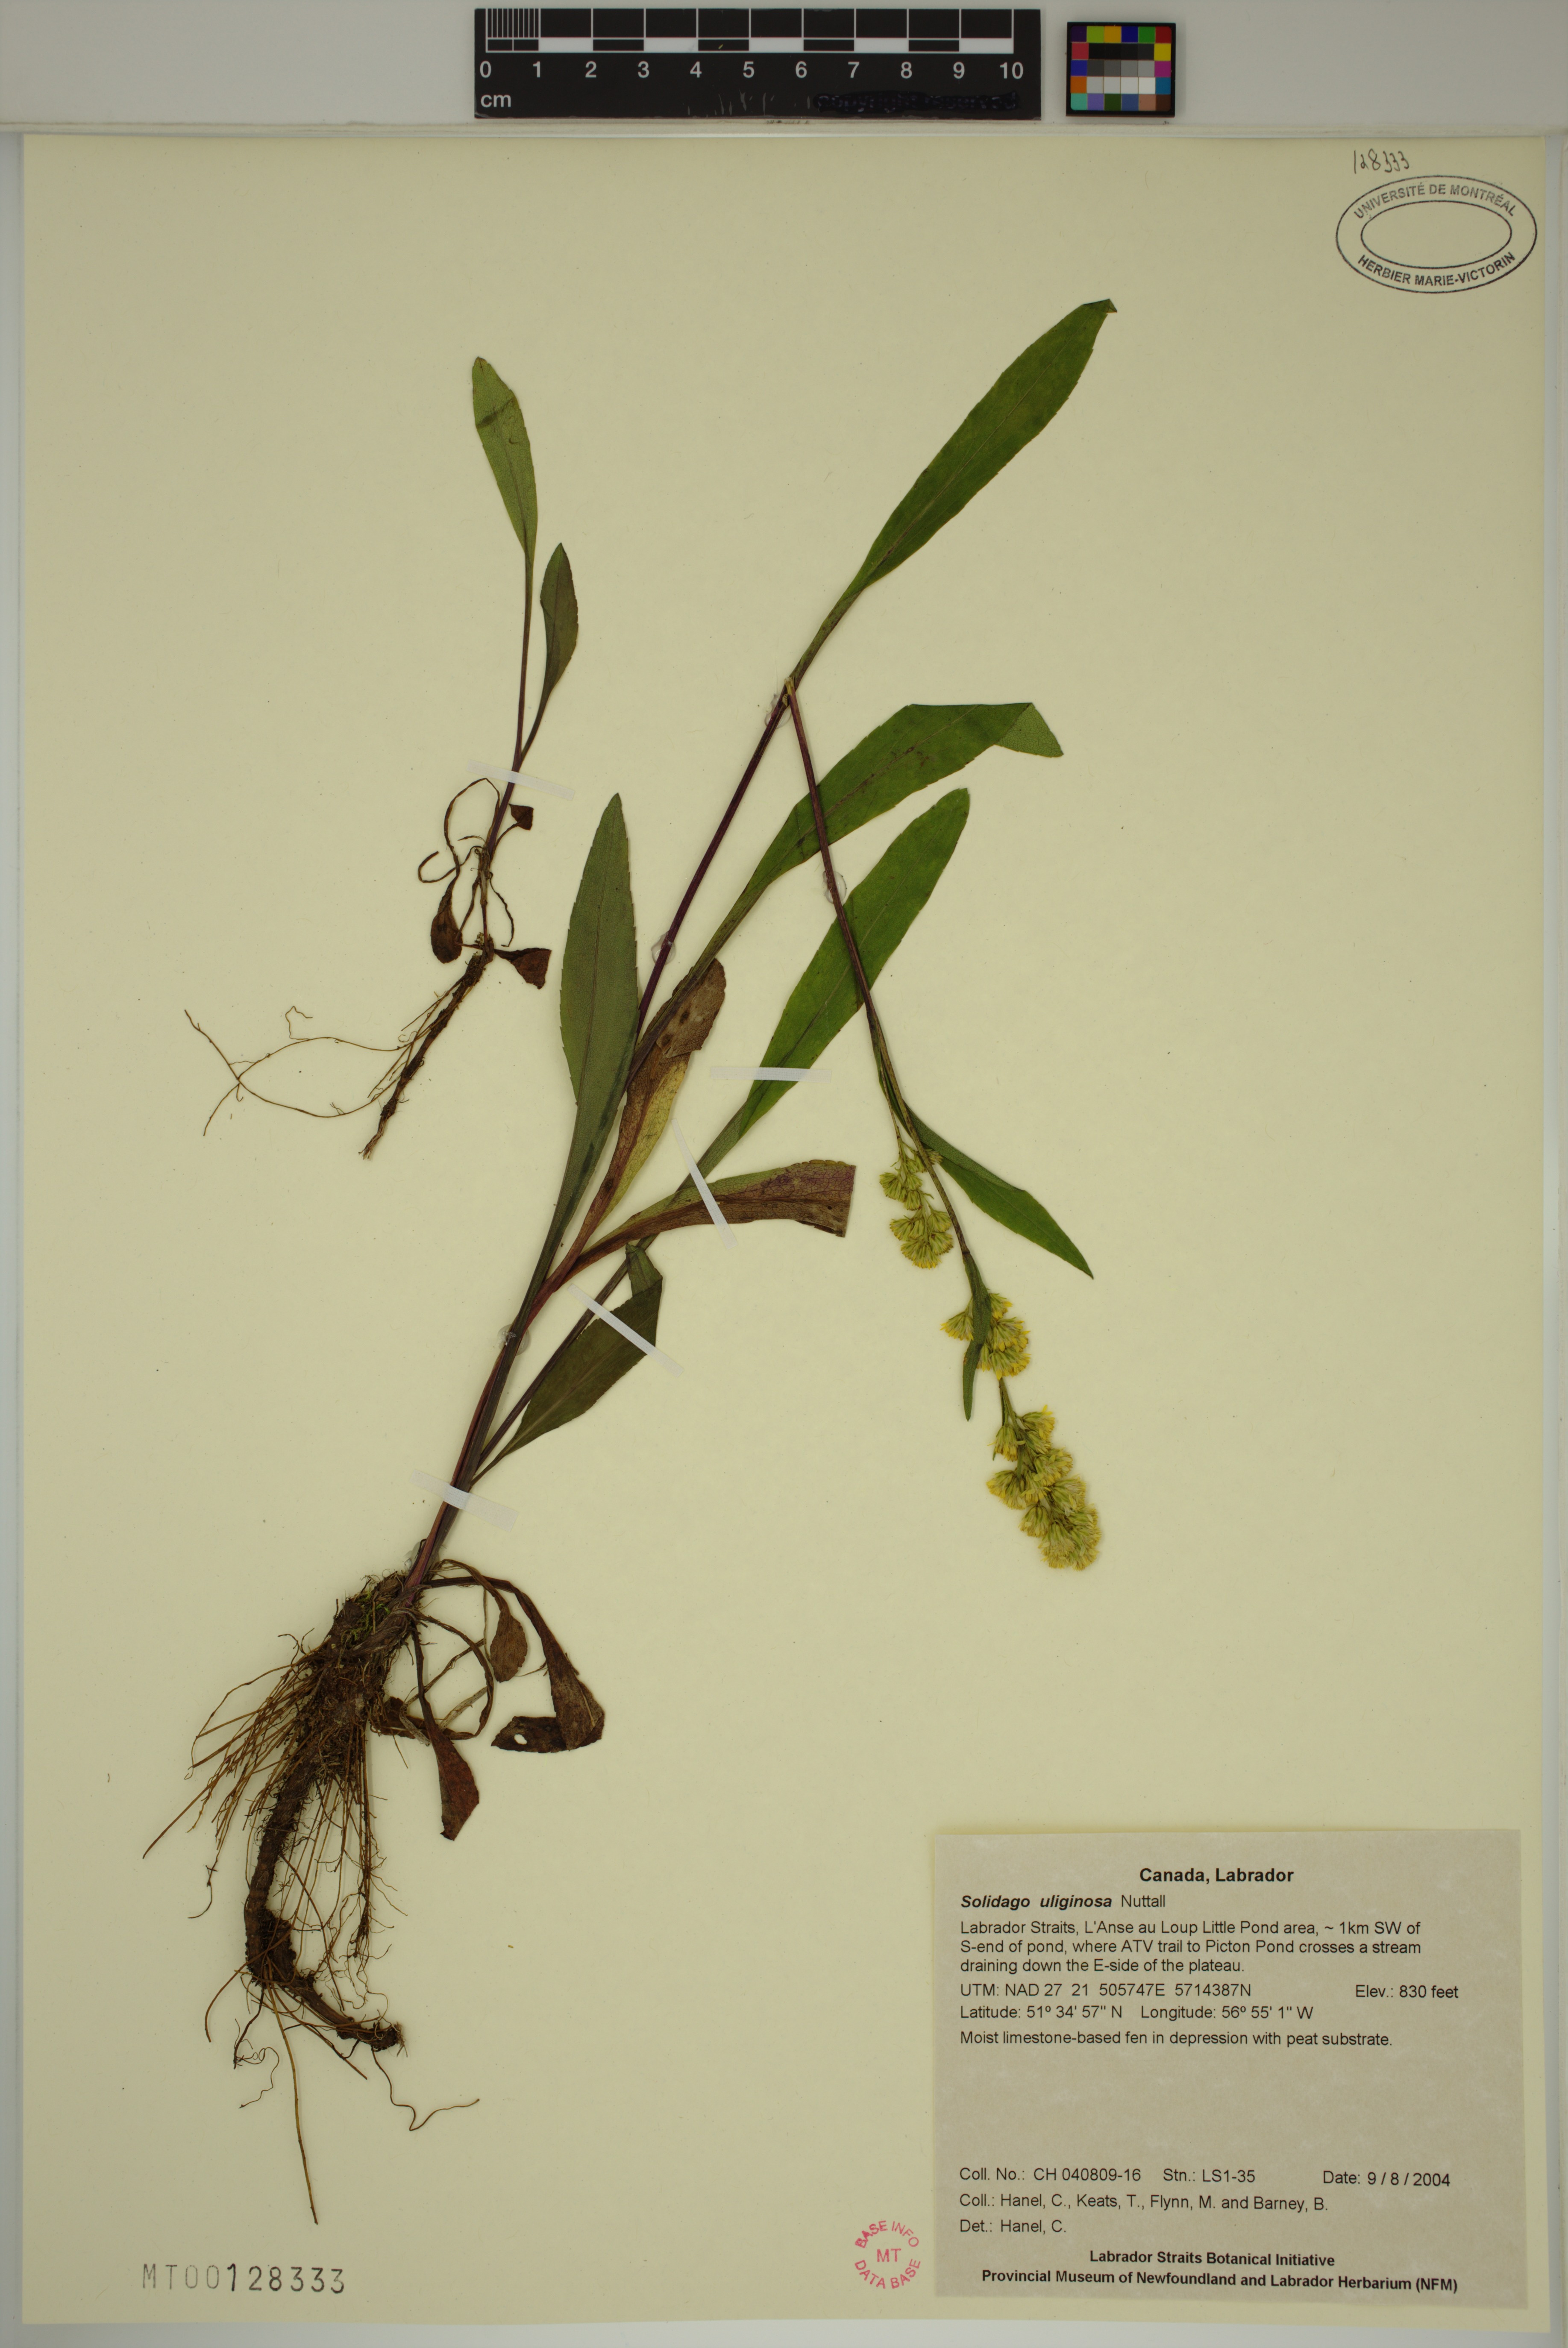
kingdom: Plantae
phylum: Tracheophyta
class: Magnoliopsida
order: Asterales
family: Asteraceae
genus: Solidago
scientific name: Solidago uliginosa
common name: Bog goldenrod
